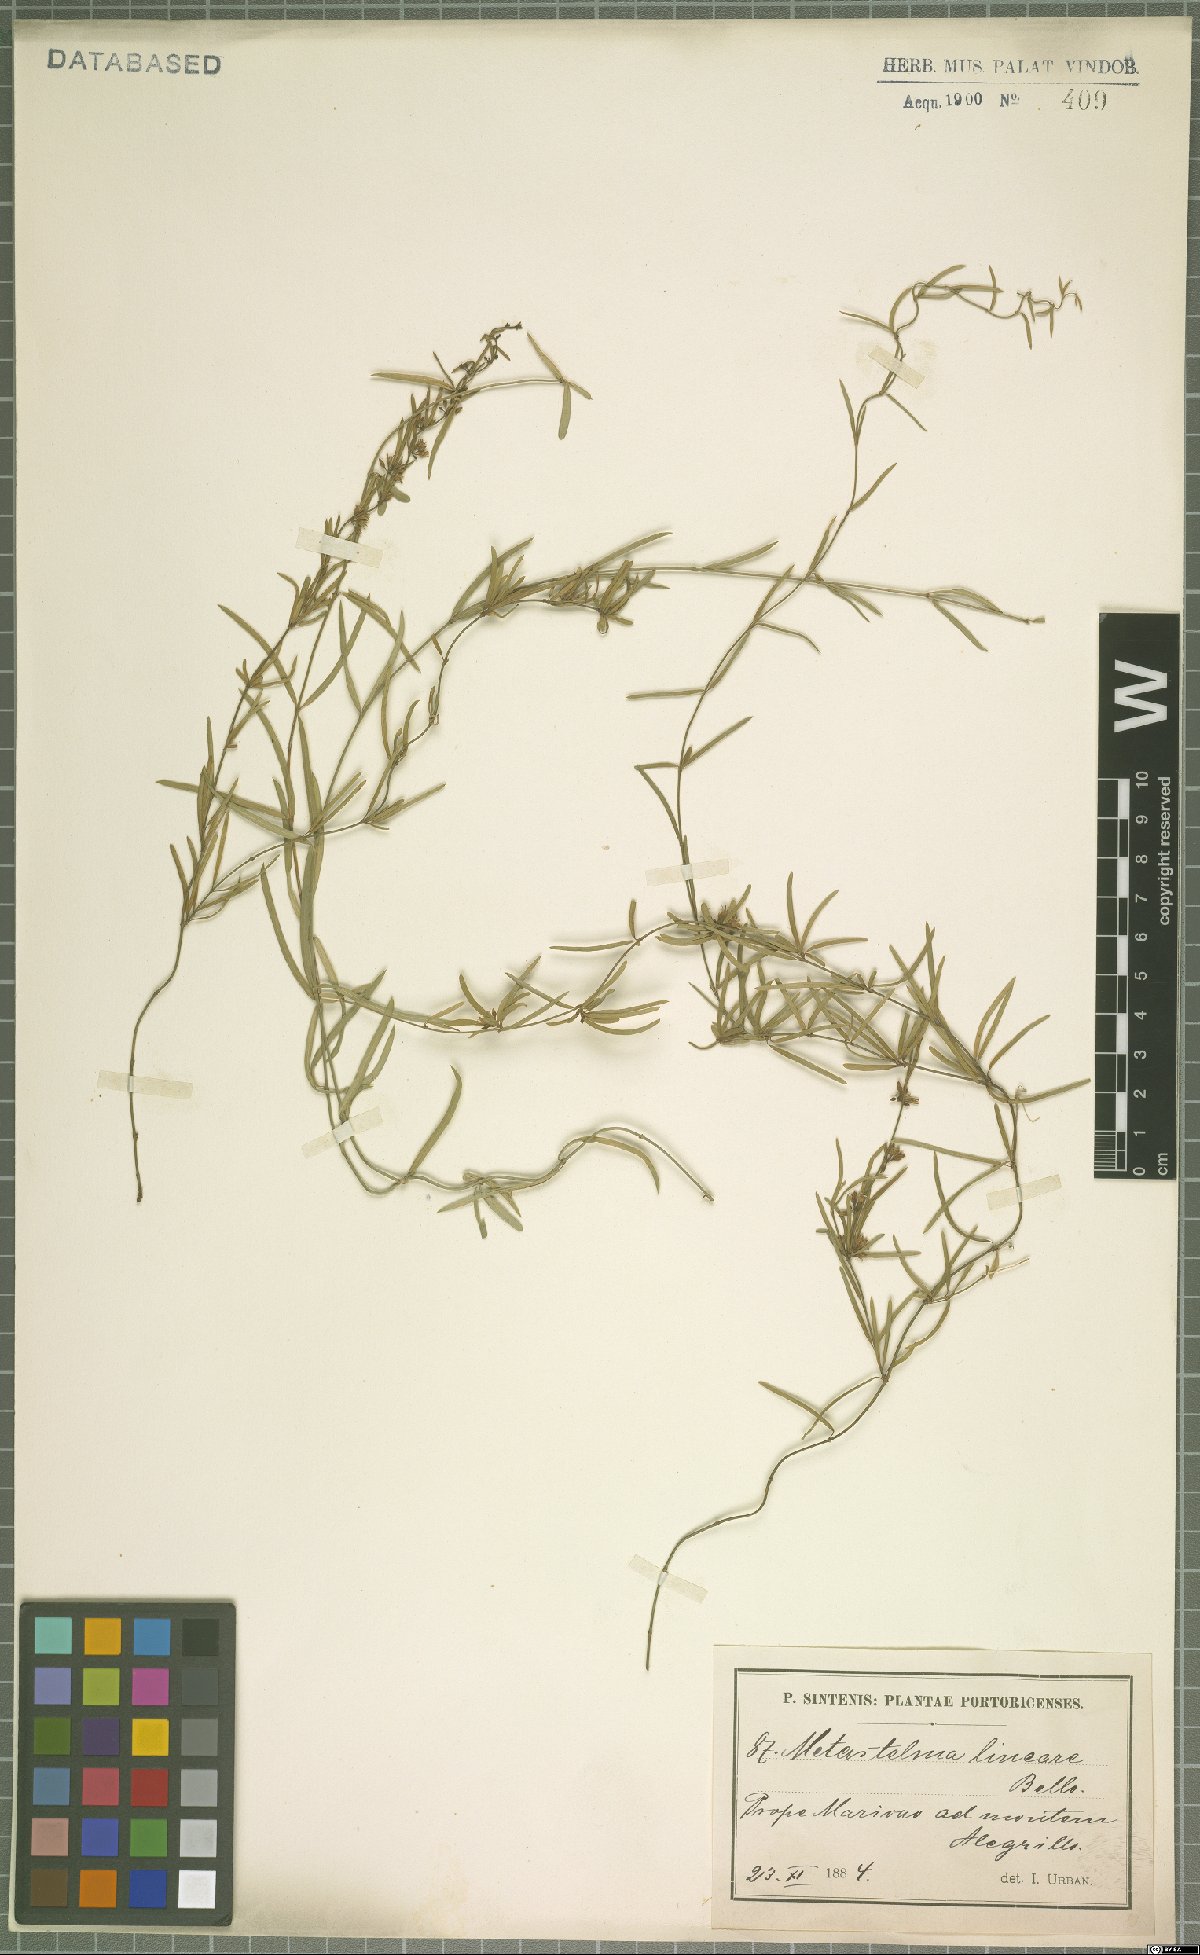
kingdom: Plantae
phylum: Tracheophyta
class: Magnoliopsida
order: Gentianales
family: Apocynaceae
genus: Metastelma
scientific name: Metastelma lineare
